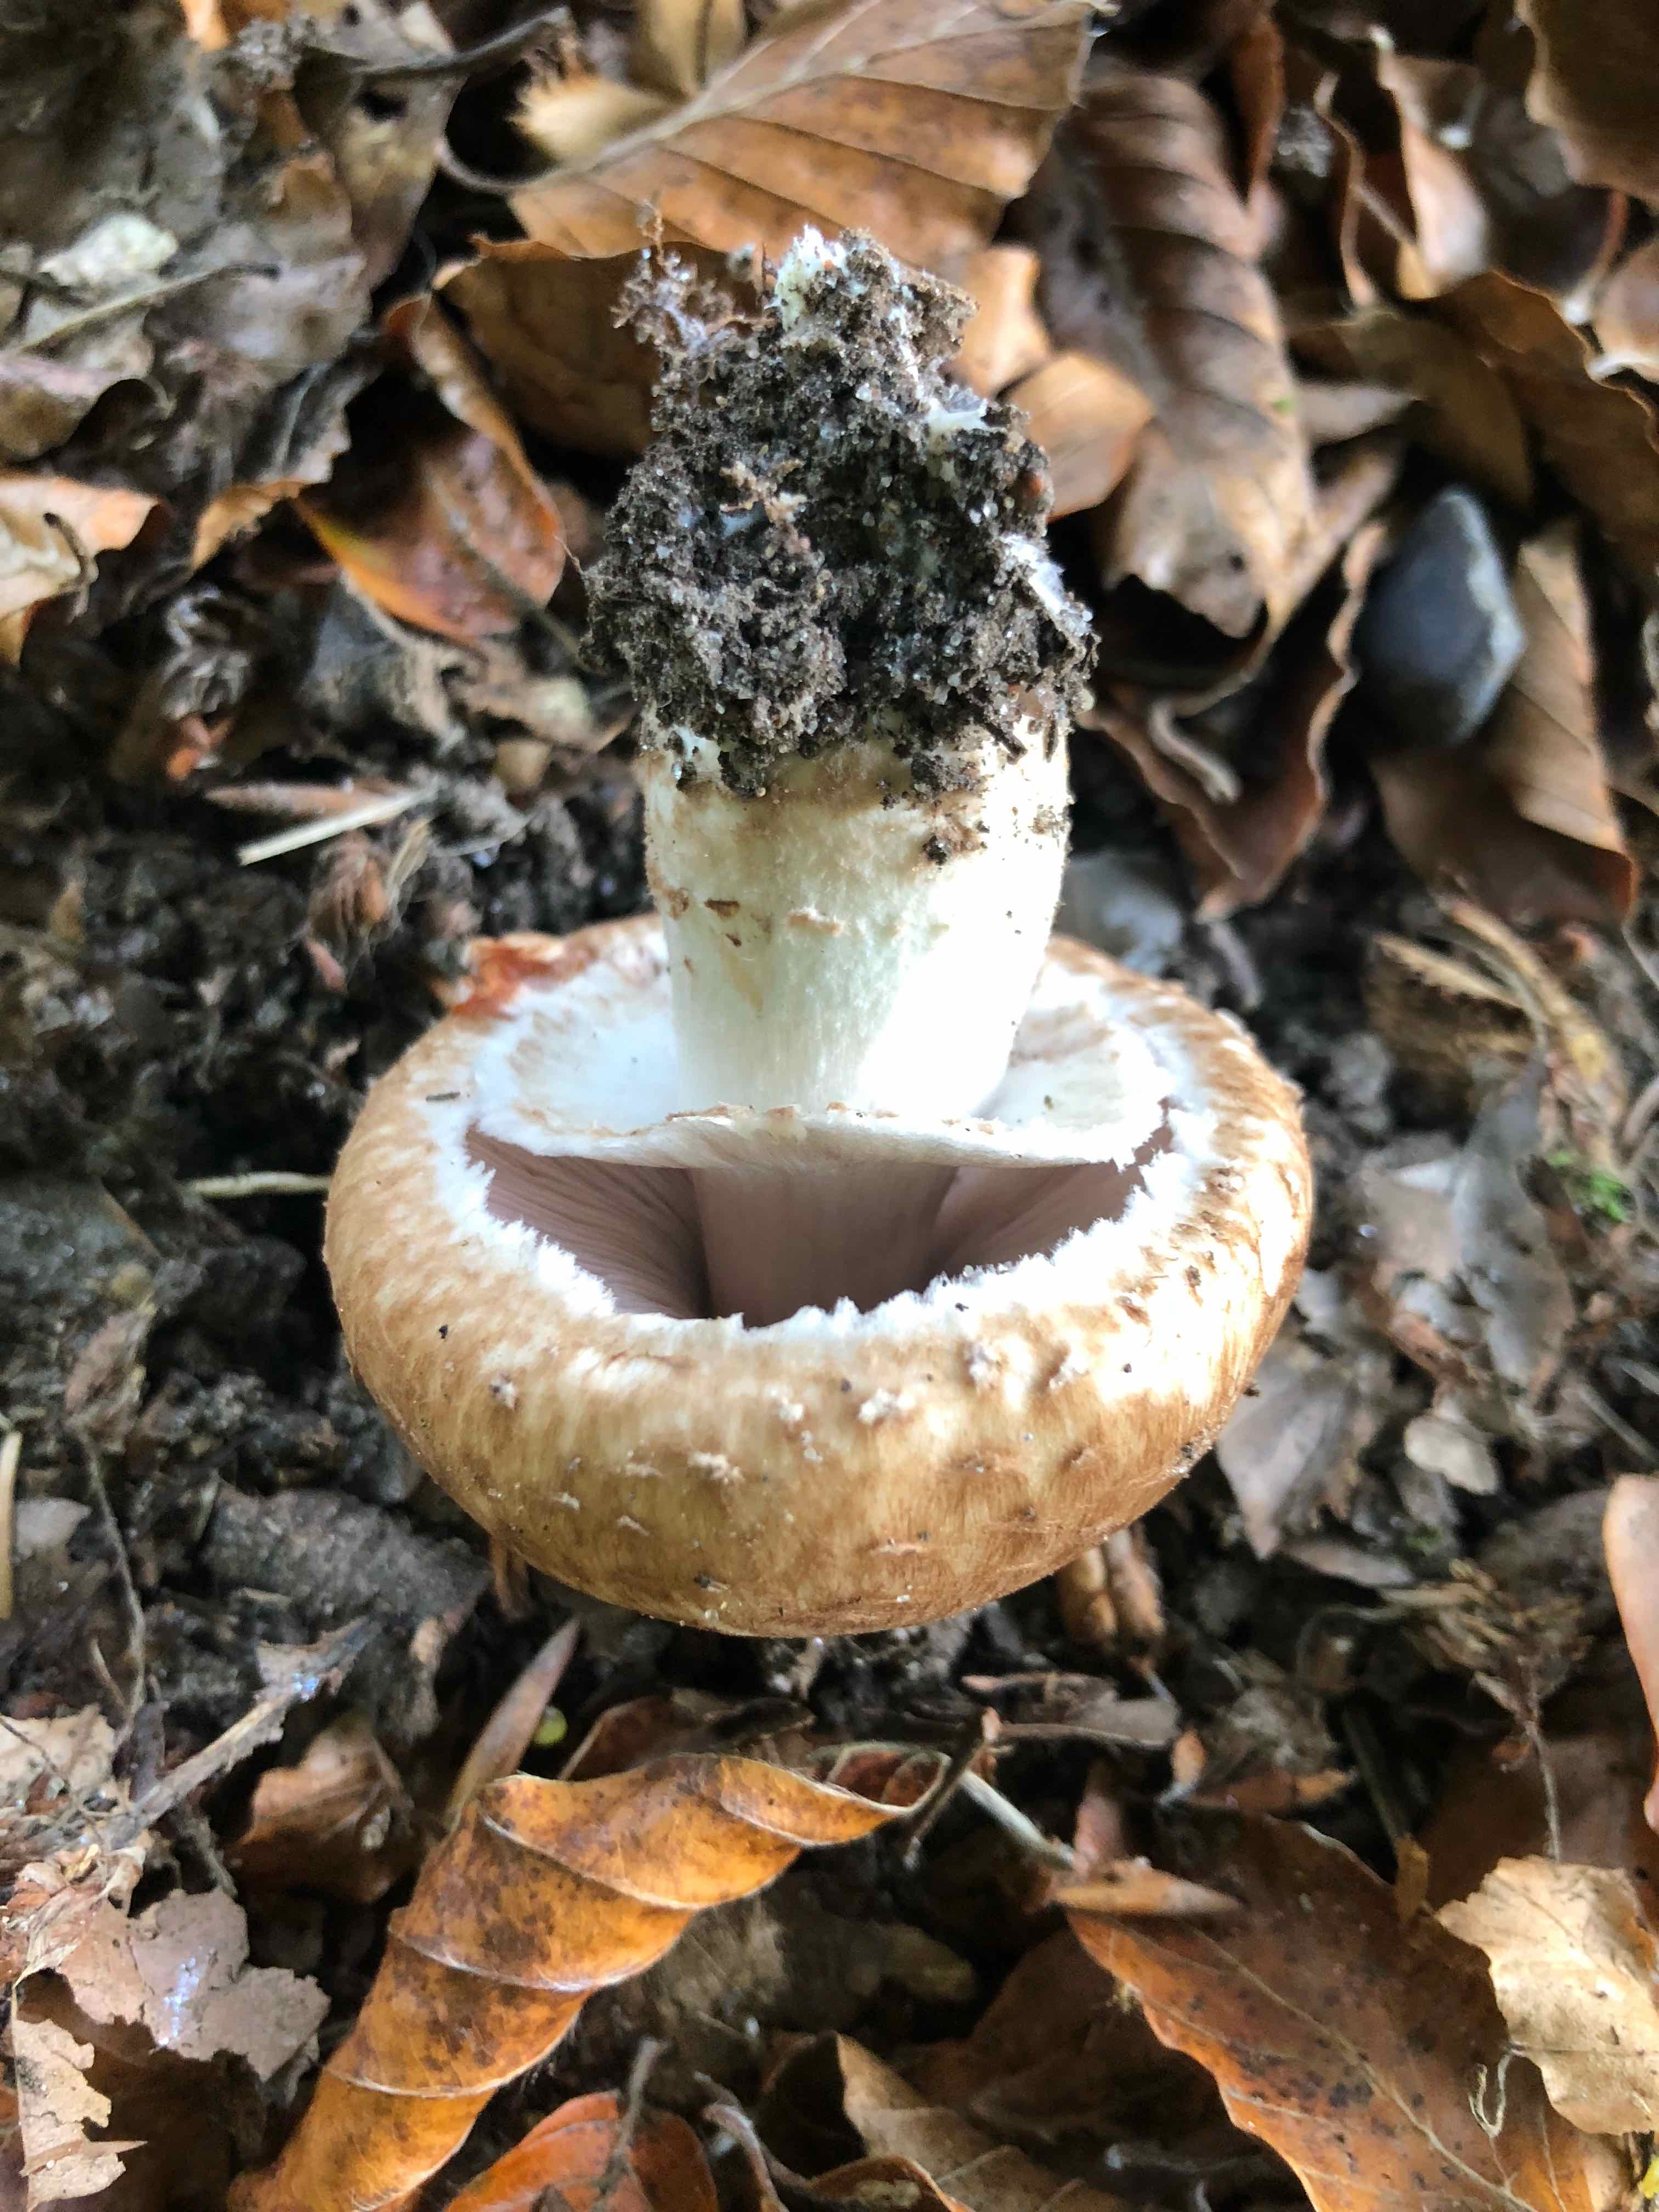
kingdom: Fungi
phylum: Basidiomycota
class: Agaricomycetes
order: Agaricales
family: Agaricaceae
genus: Agaricus
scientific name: Agaricus lanipes
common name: uldstokket champignon
